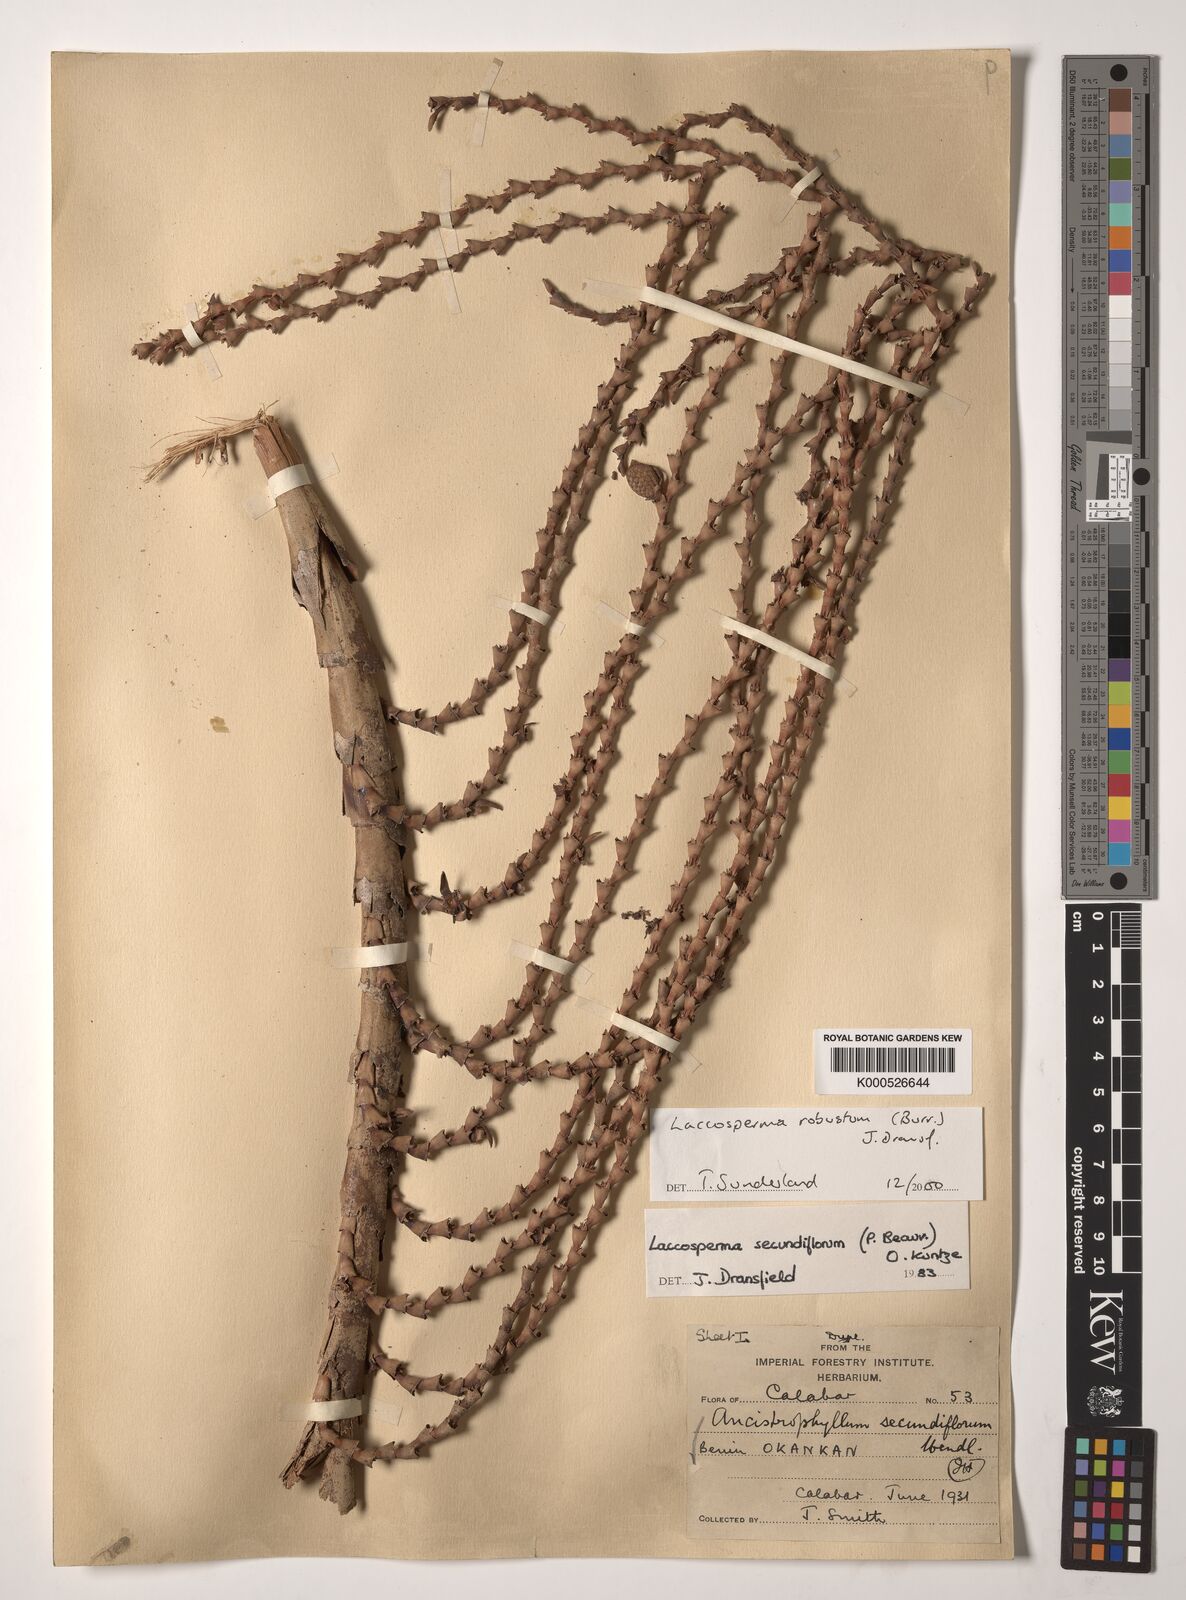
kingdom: Plantae
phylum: Tracheophyta
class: Liliopsida
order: Arecales
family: Arecaceae
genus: Laccosperma
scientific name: Laccosperma robustum
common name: Rattan
